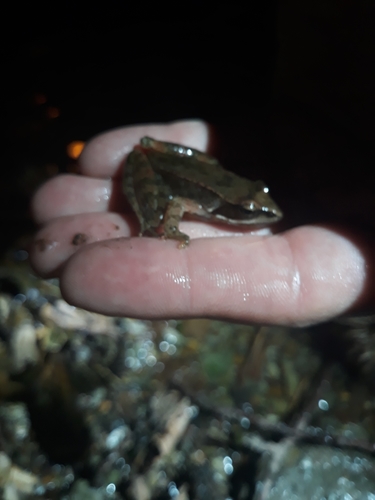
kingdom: Animalia
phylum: Chordata
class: Amphibia
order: Anura
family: Ranidae
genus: Rana
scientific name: Rana iberica
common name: Iberian frog
